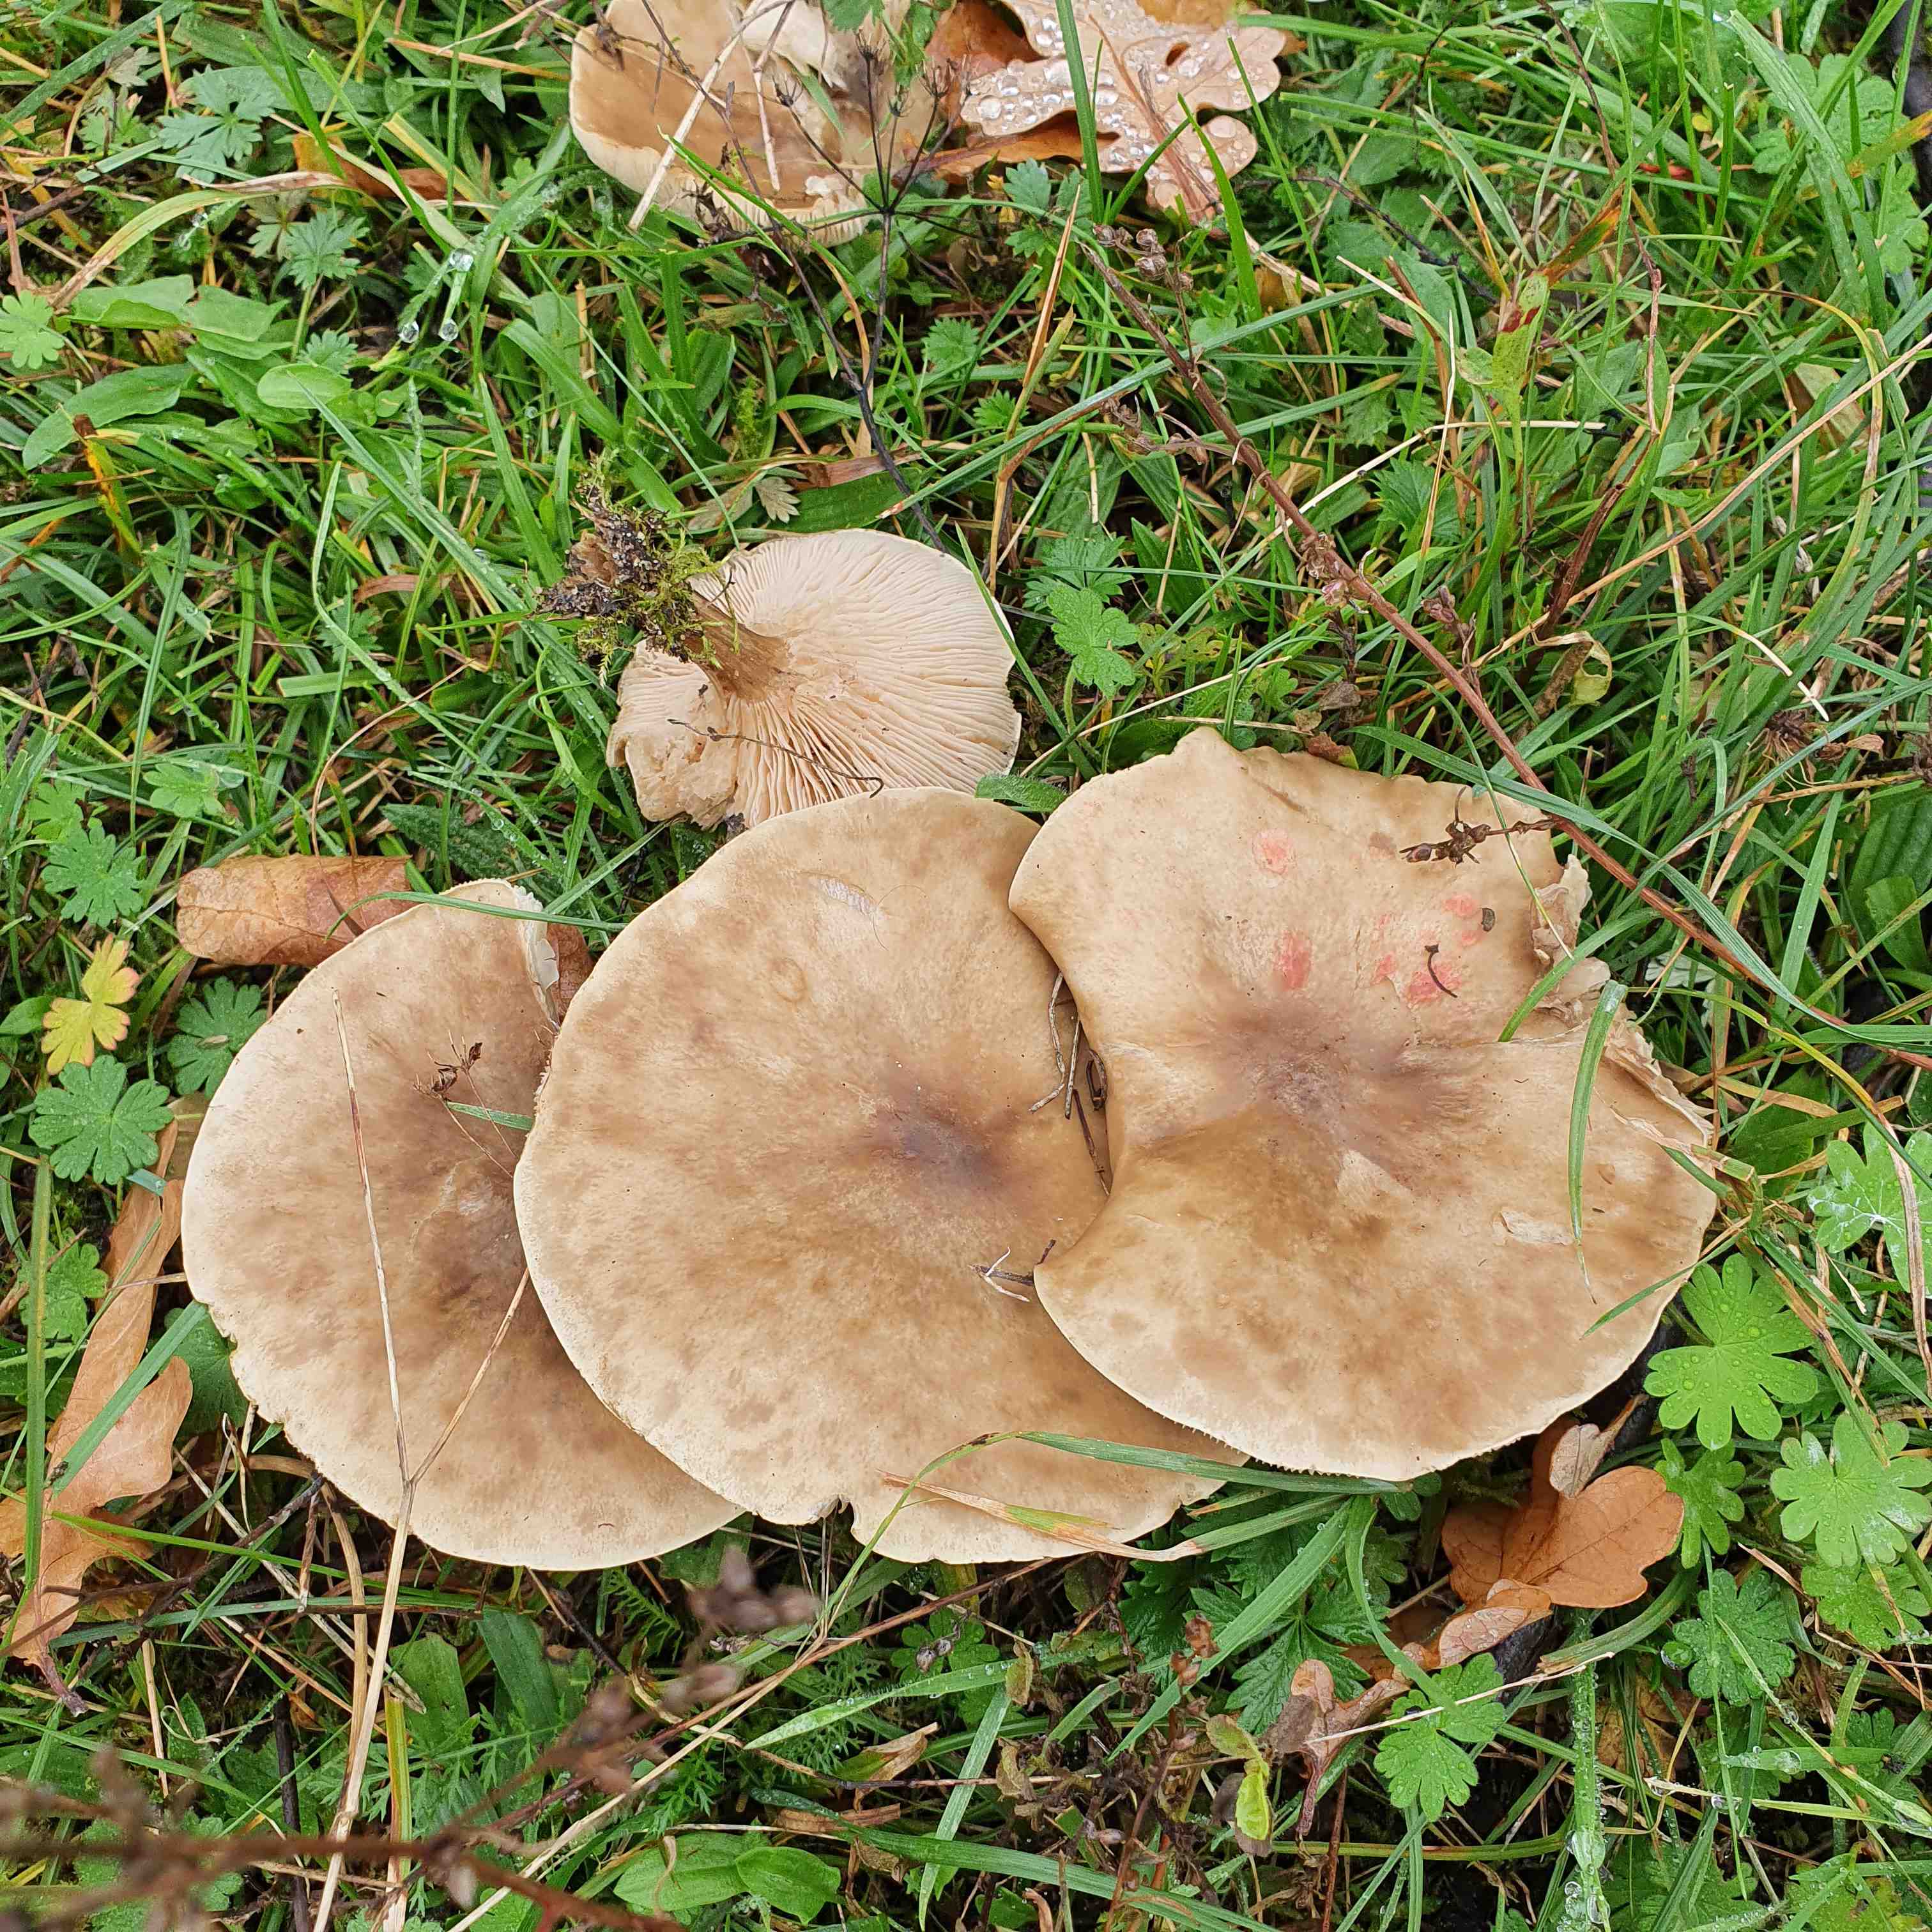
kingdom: Fungi
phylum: Basidiomycota
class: Agaricomycetes
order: Agaricales
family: Tricholomataceae
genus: Lepista
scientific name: Lepista panaeolus
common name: marmoreret hekseringshat
